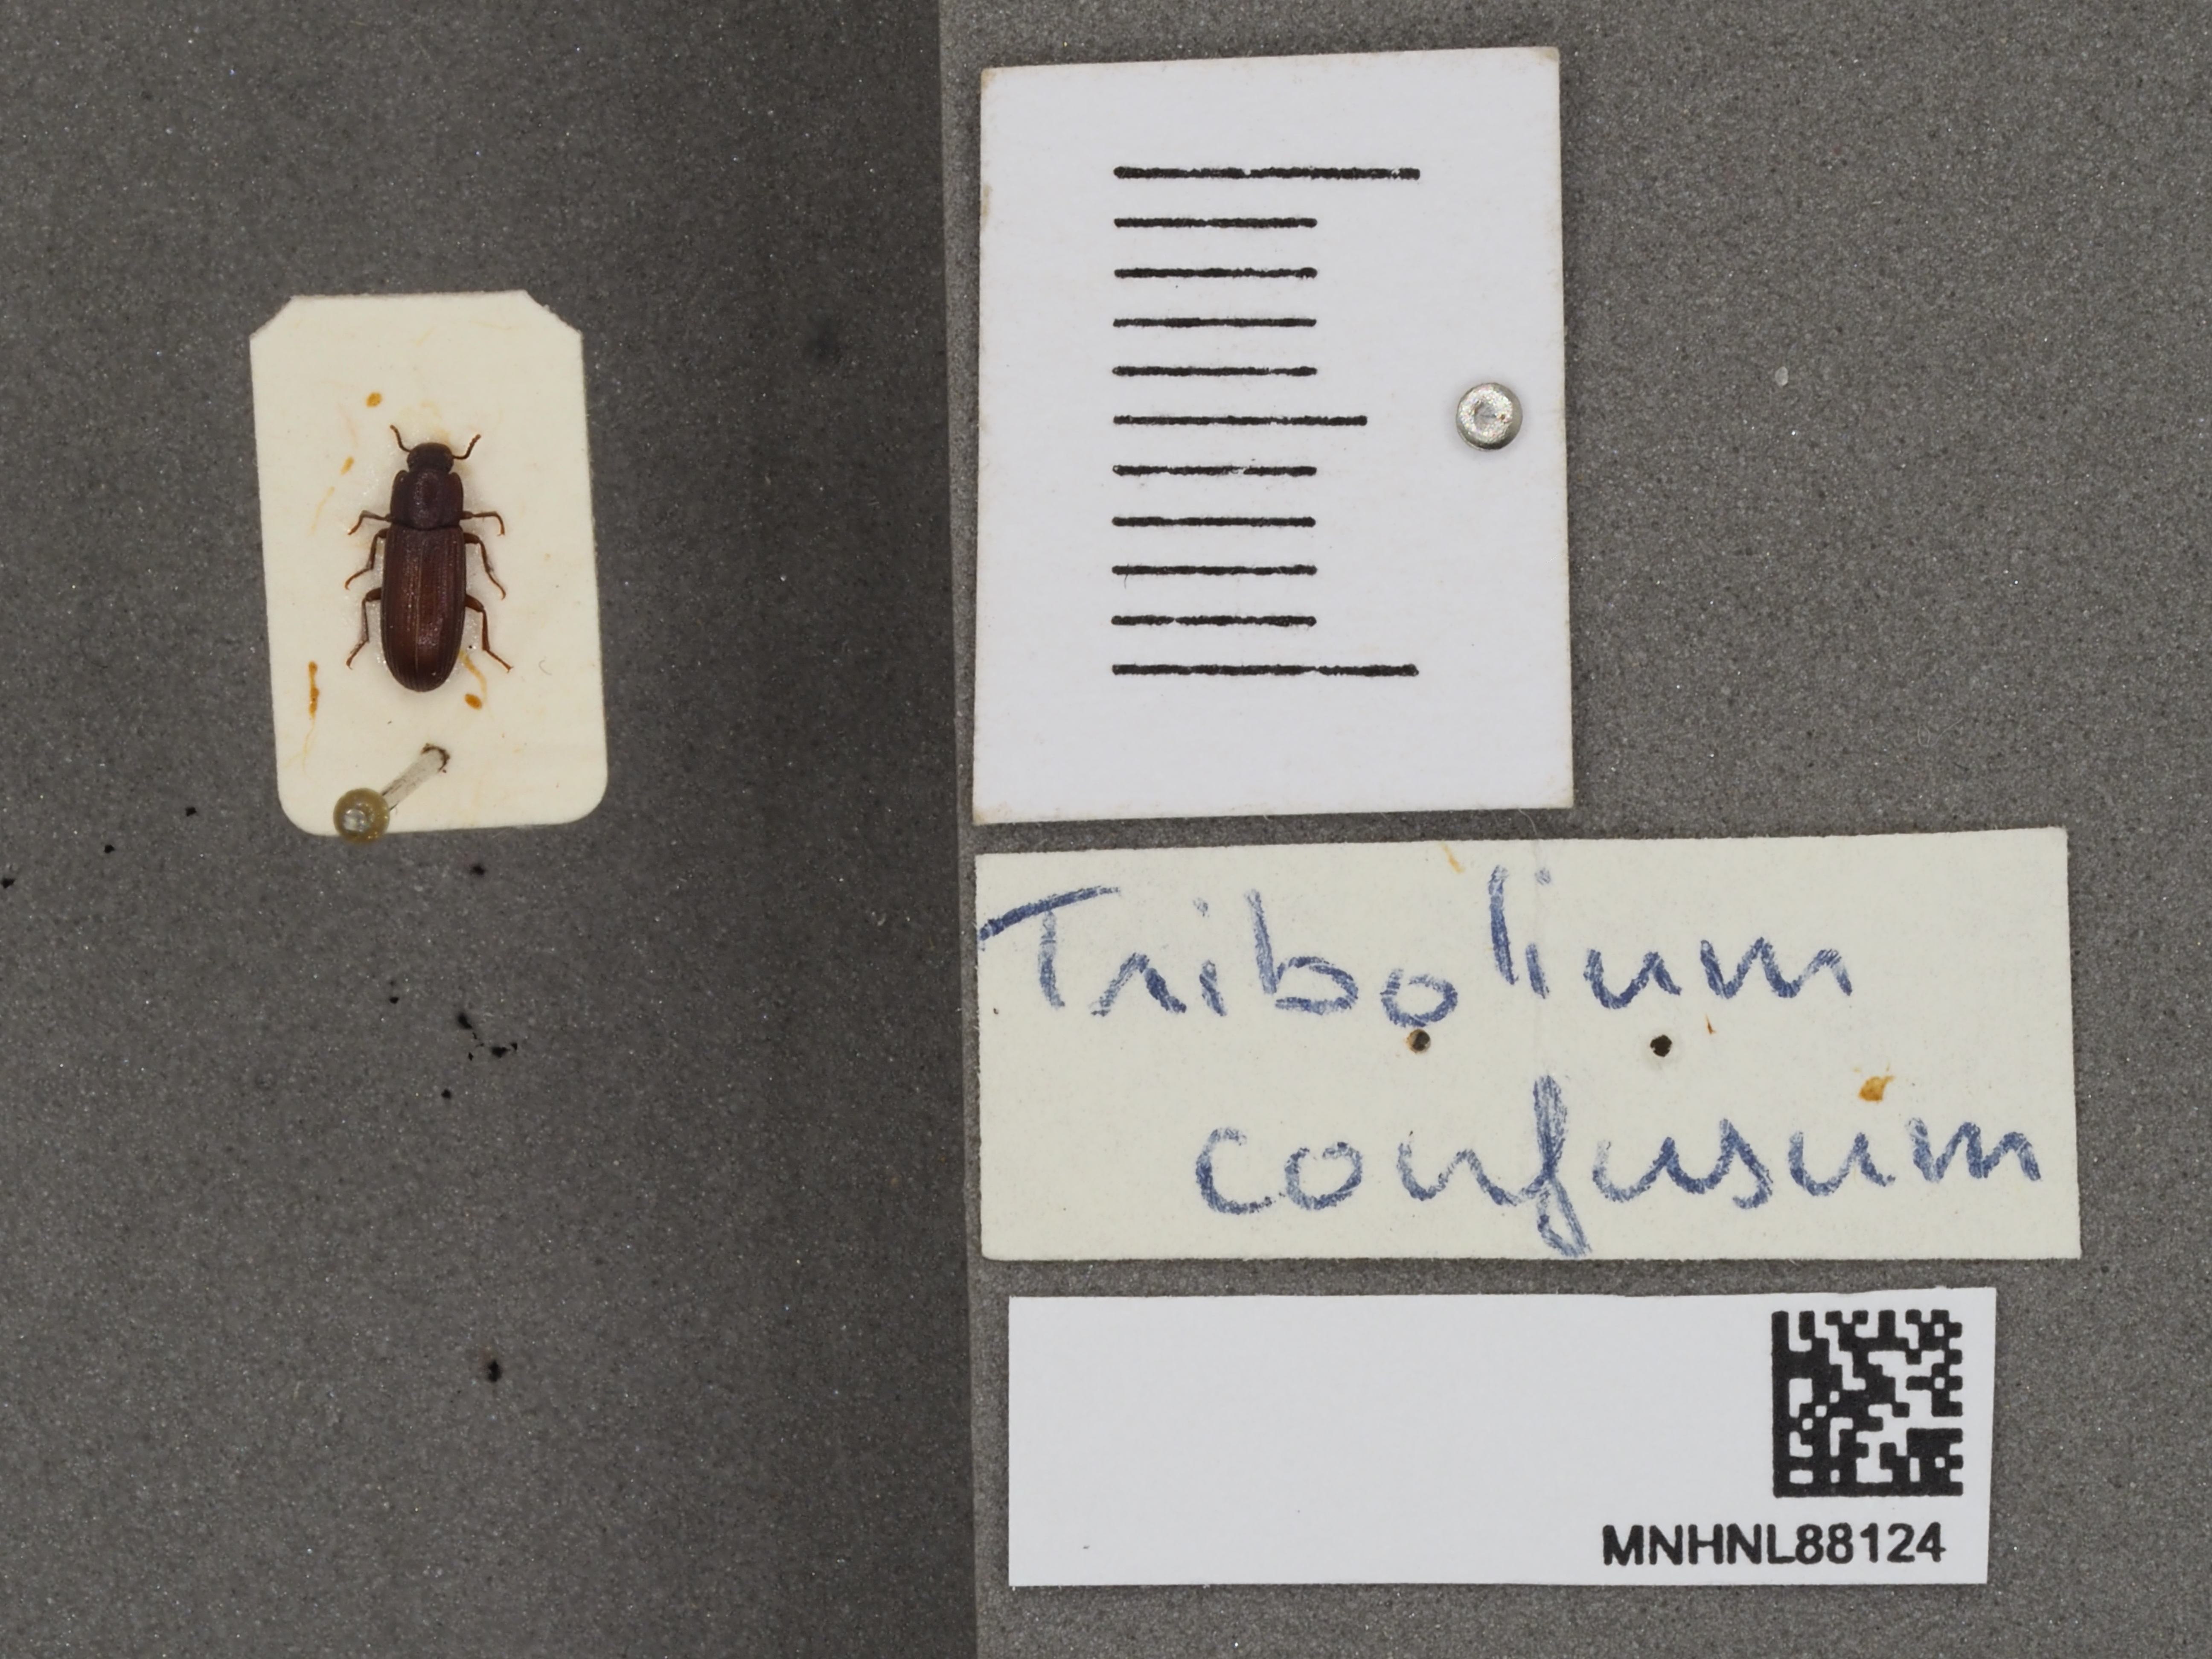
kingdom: Animalia
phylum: Arthropoda
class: Insecta
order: Coleoptera
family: Tenebrionidae
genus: Tribolium
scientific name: Tribolium confusum
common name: Confused flour beetle
